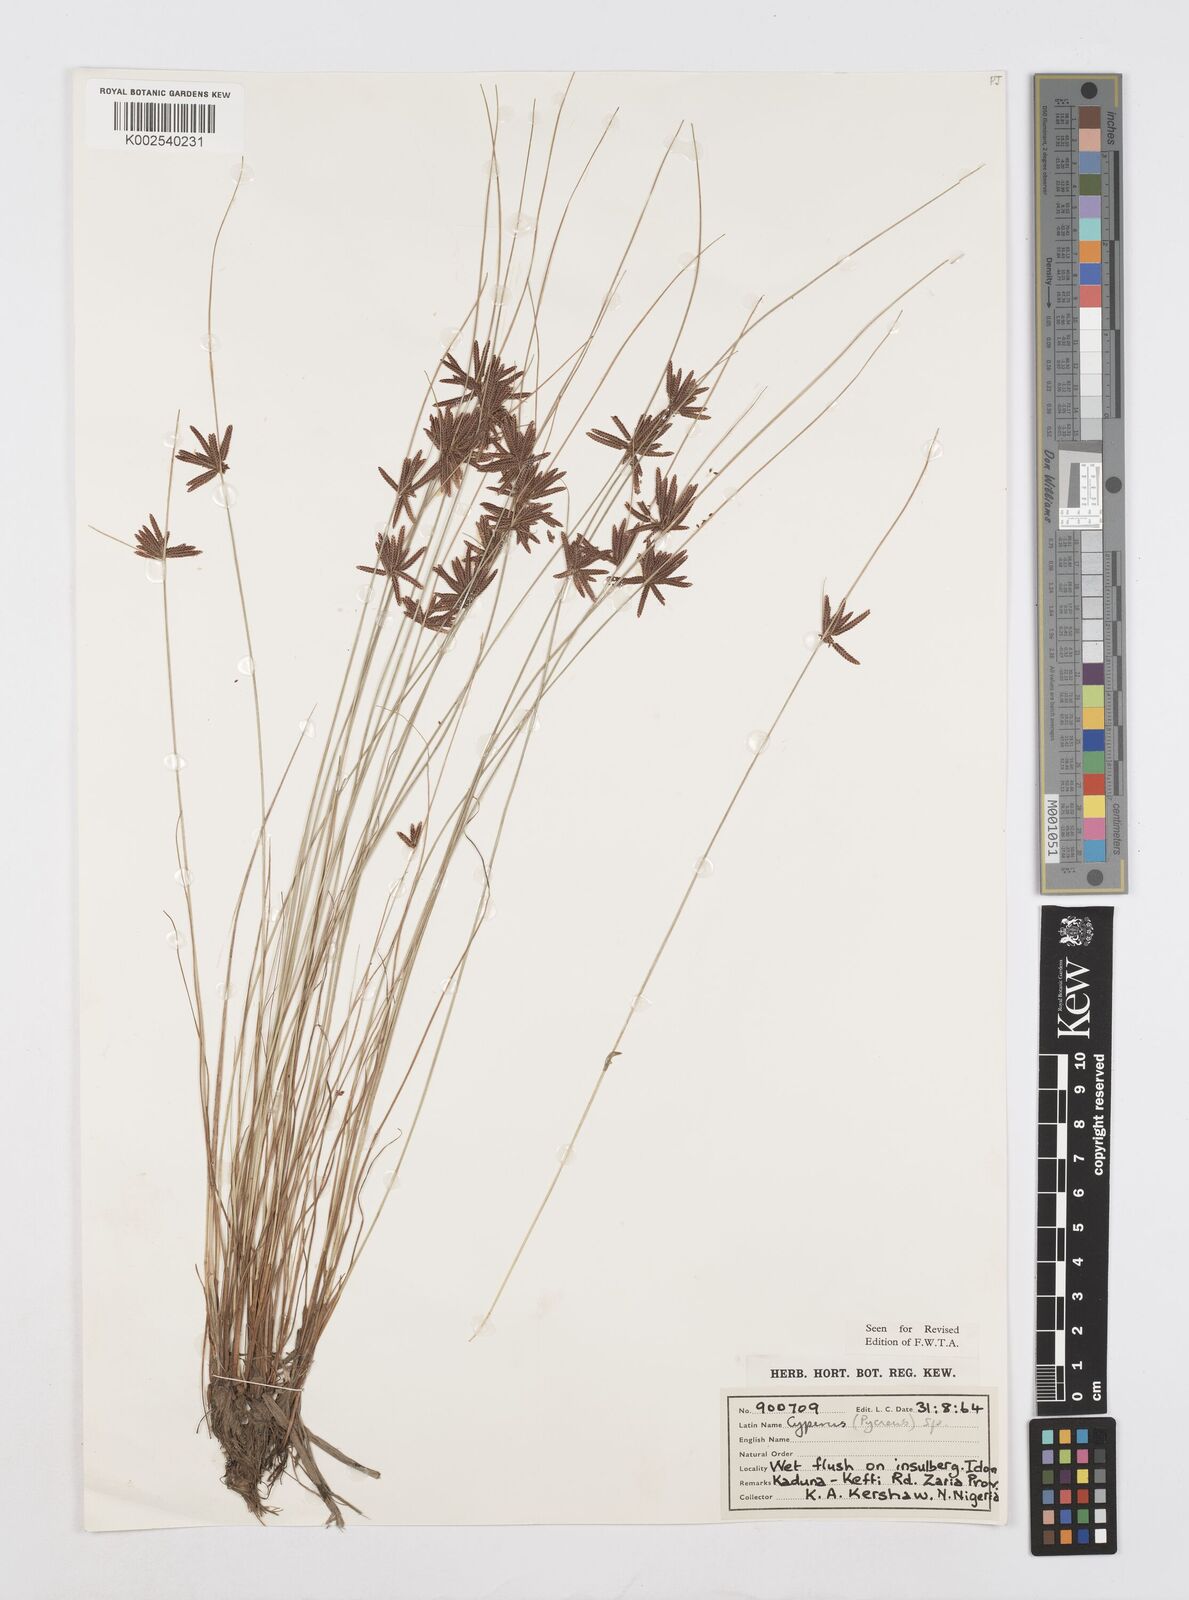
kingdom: Plantae
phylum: Tracheophyta
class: Liliopsida
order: Poales
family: Cyperaceae
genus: Cyperus
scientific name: Cyperus capillifolius
